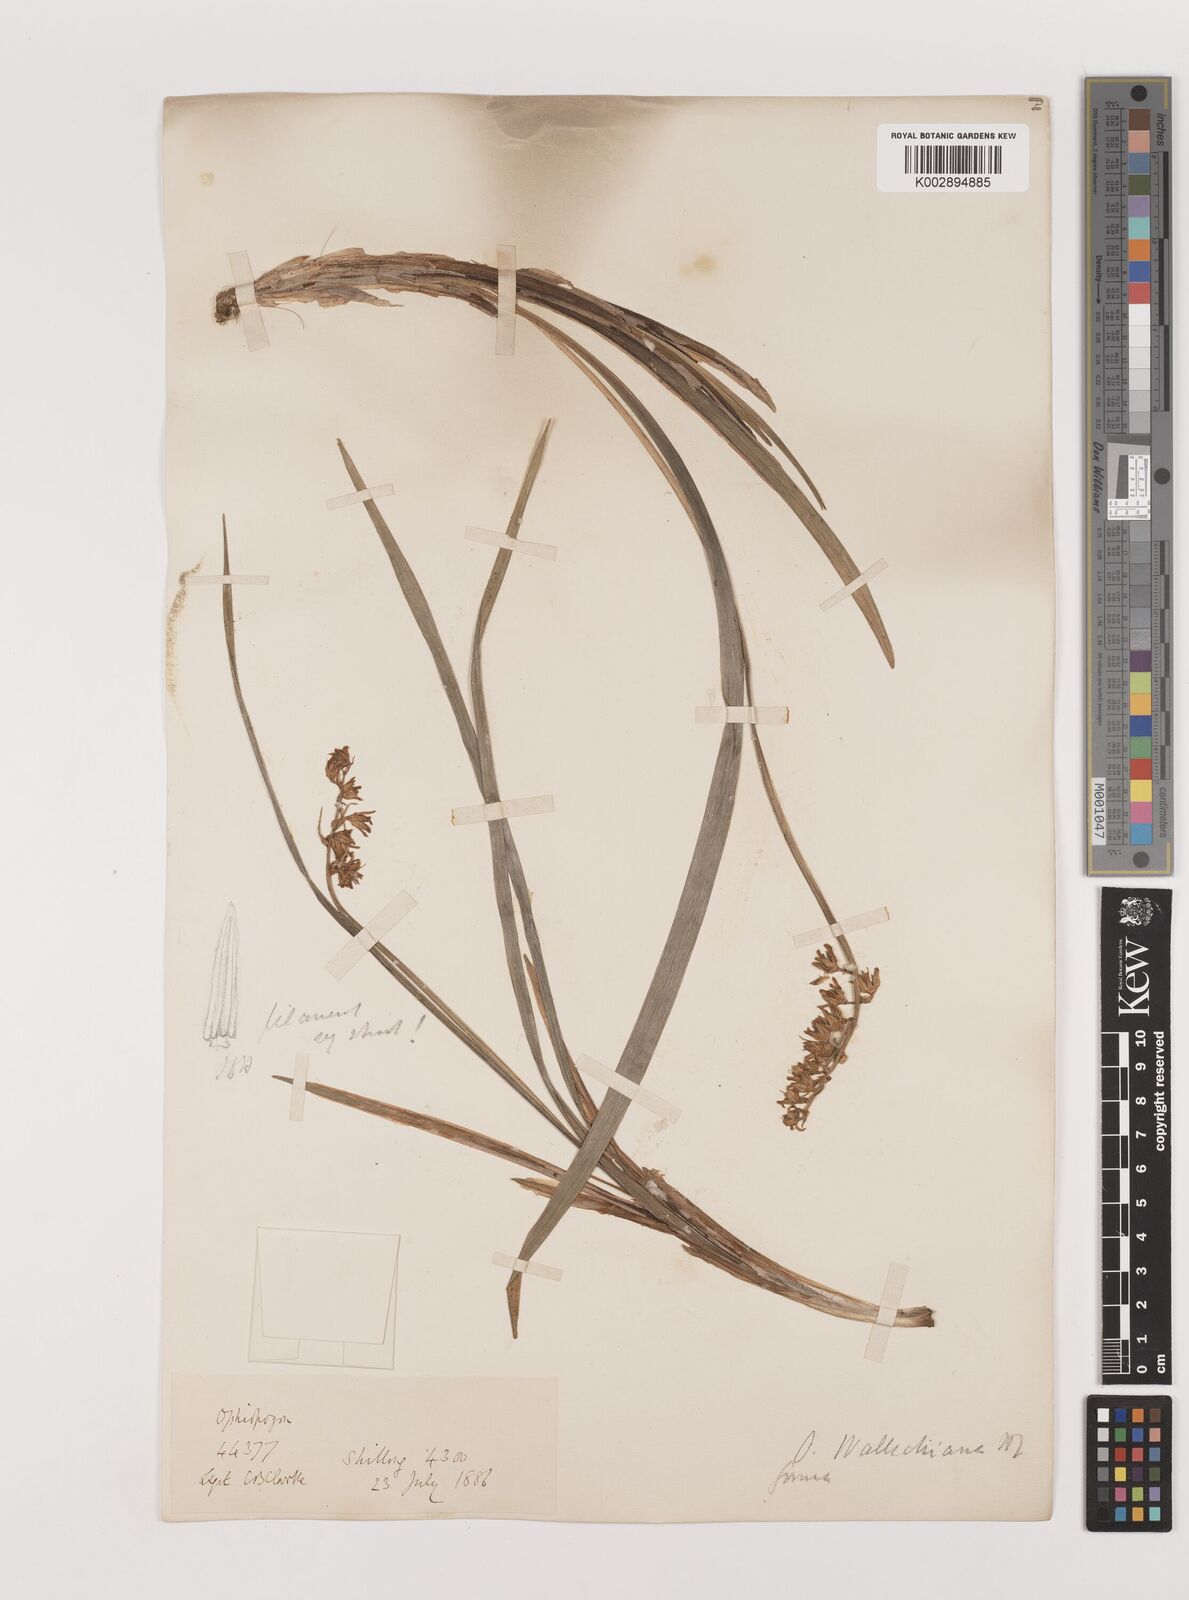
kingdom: Plantae
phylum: Tracheophyta
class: Liliopsida
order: Asparagales
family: Asparagaceae
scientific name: Asparagaceae
